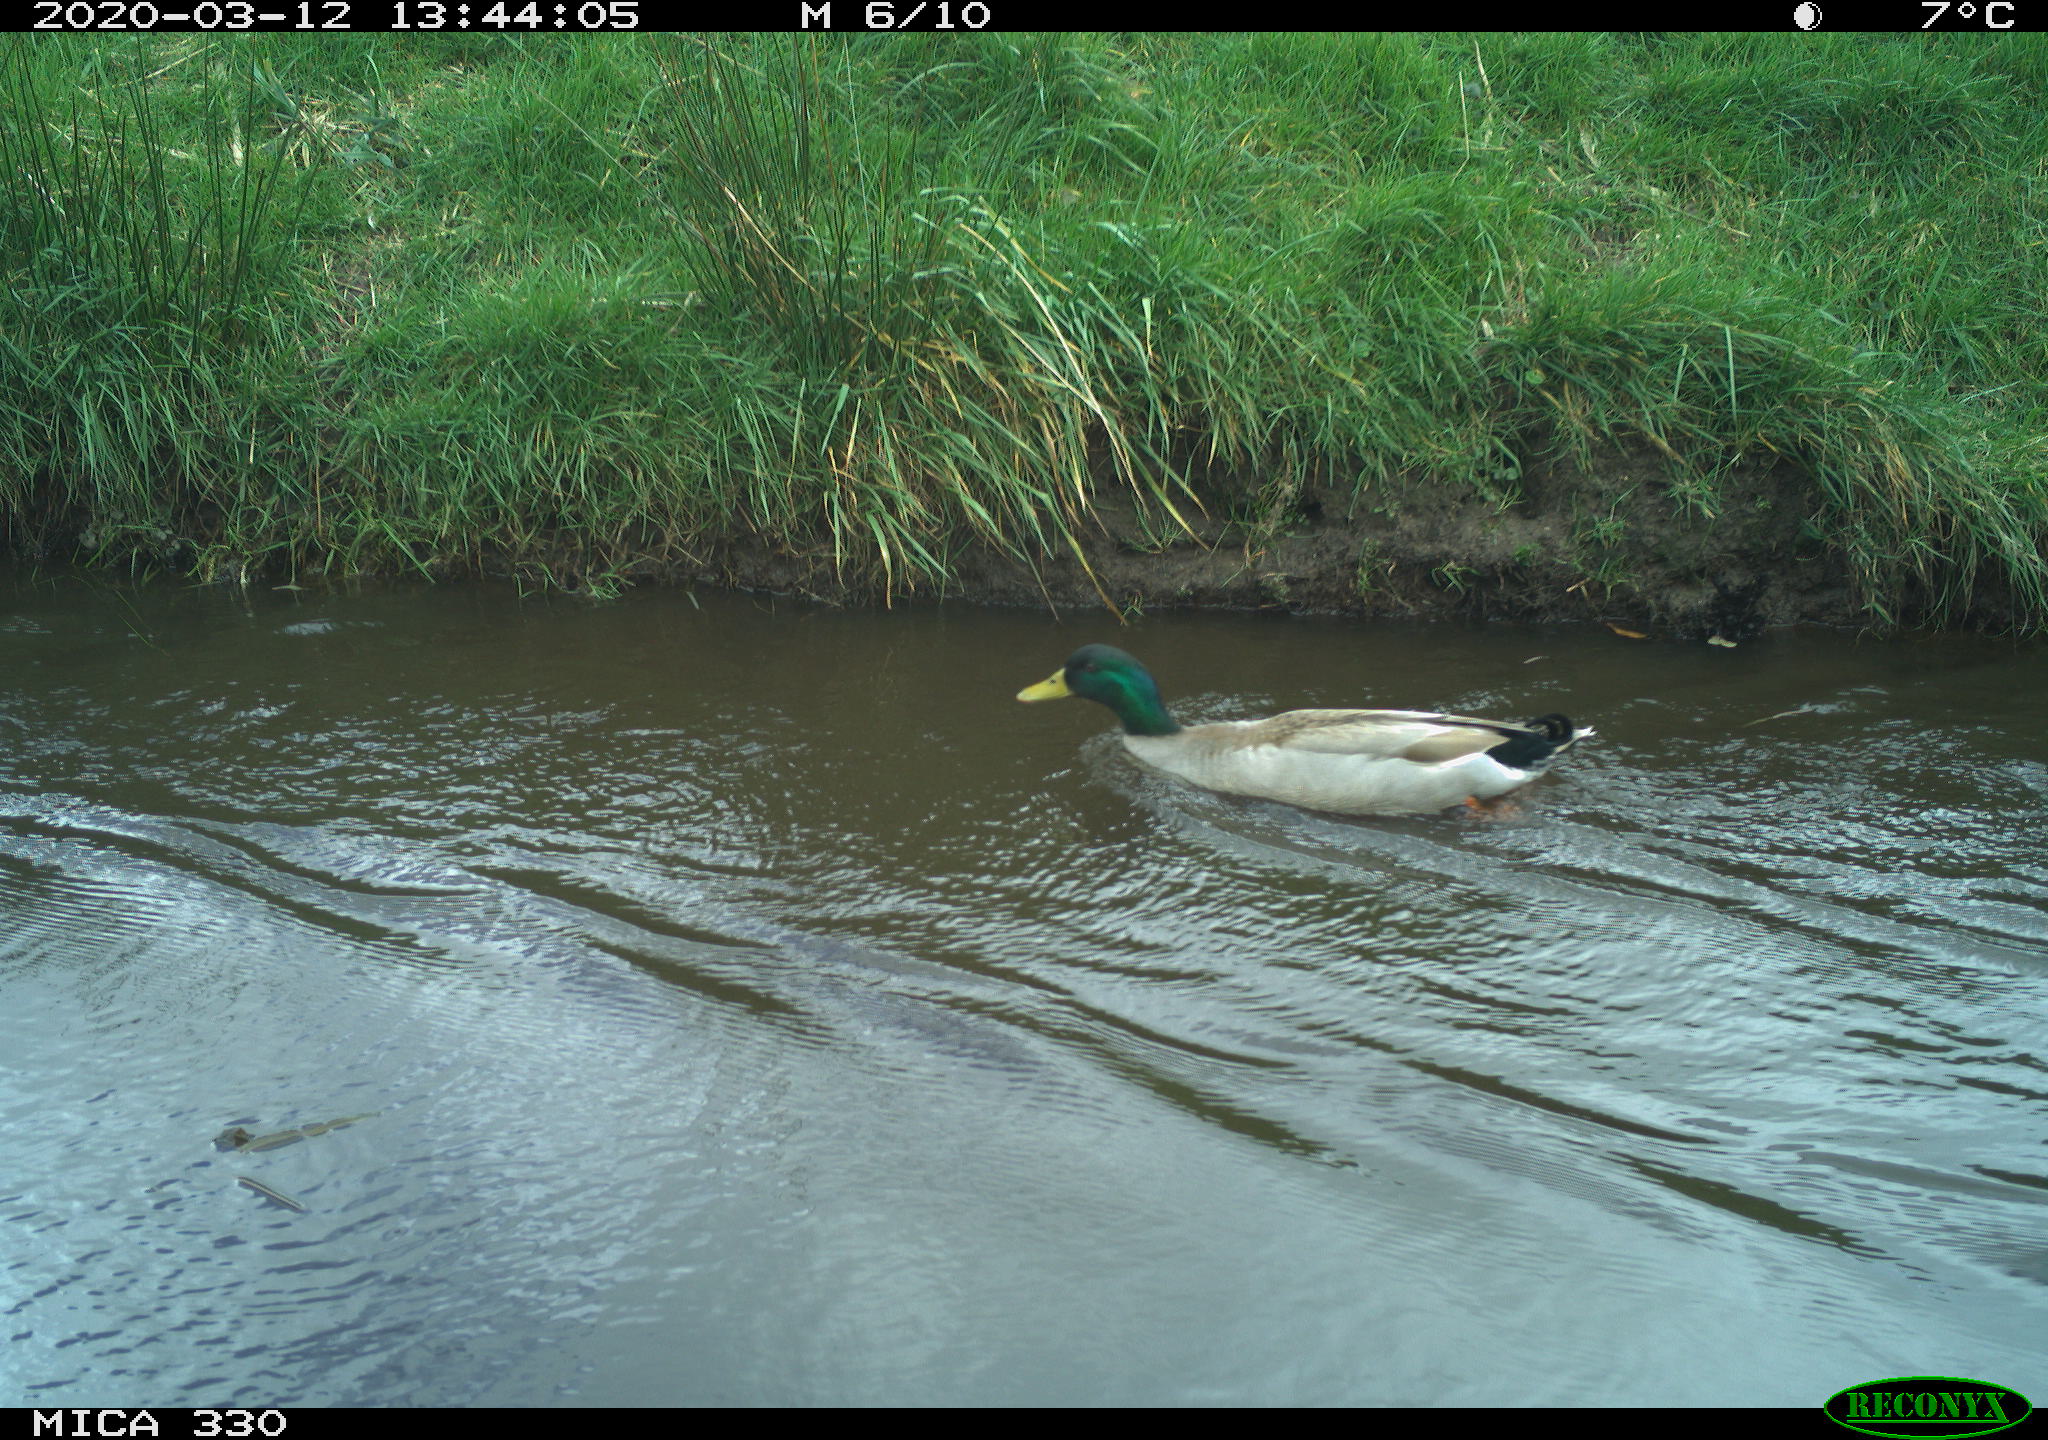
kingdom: Animalia
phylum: Chordata
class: Aves
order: Anseriformes
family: Anatidae
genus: Anas
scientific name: Anas platyrhynchos
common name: Mallard
